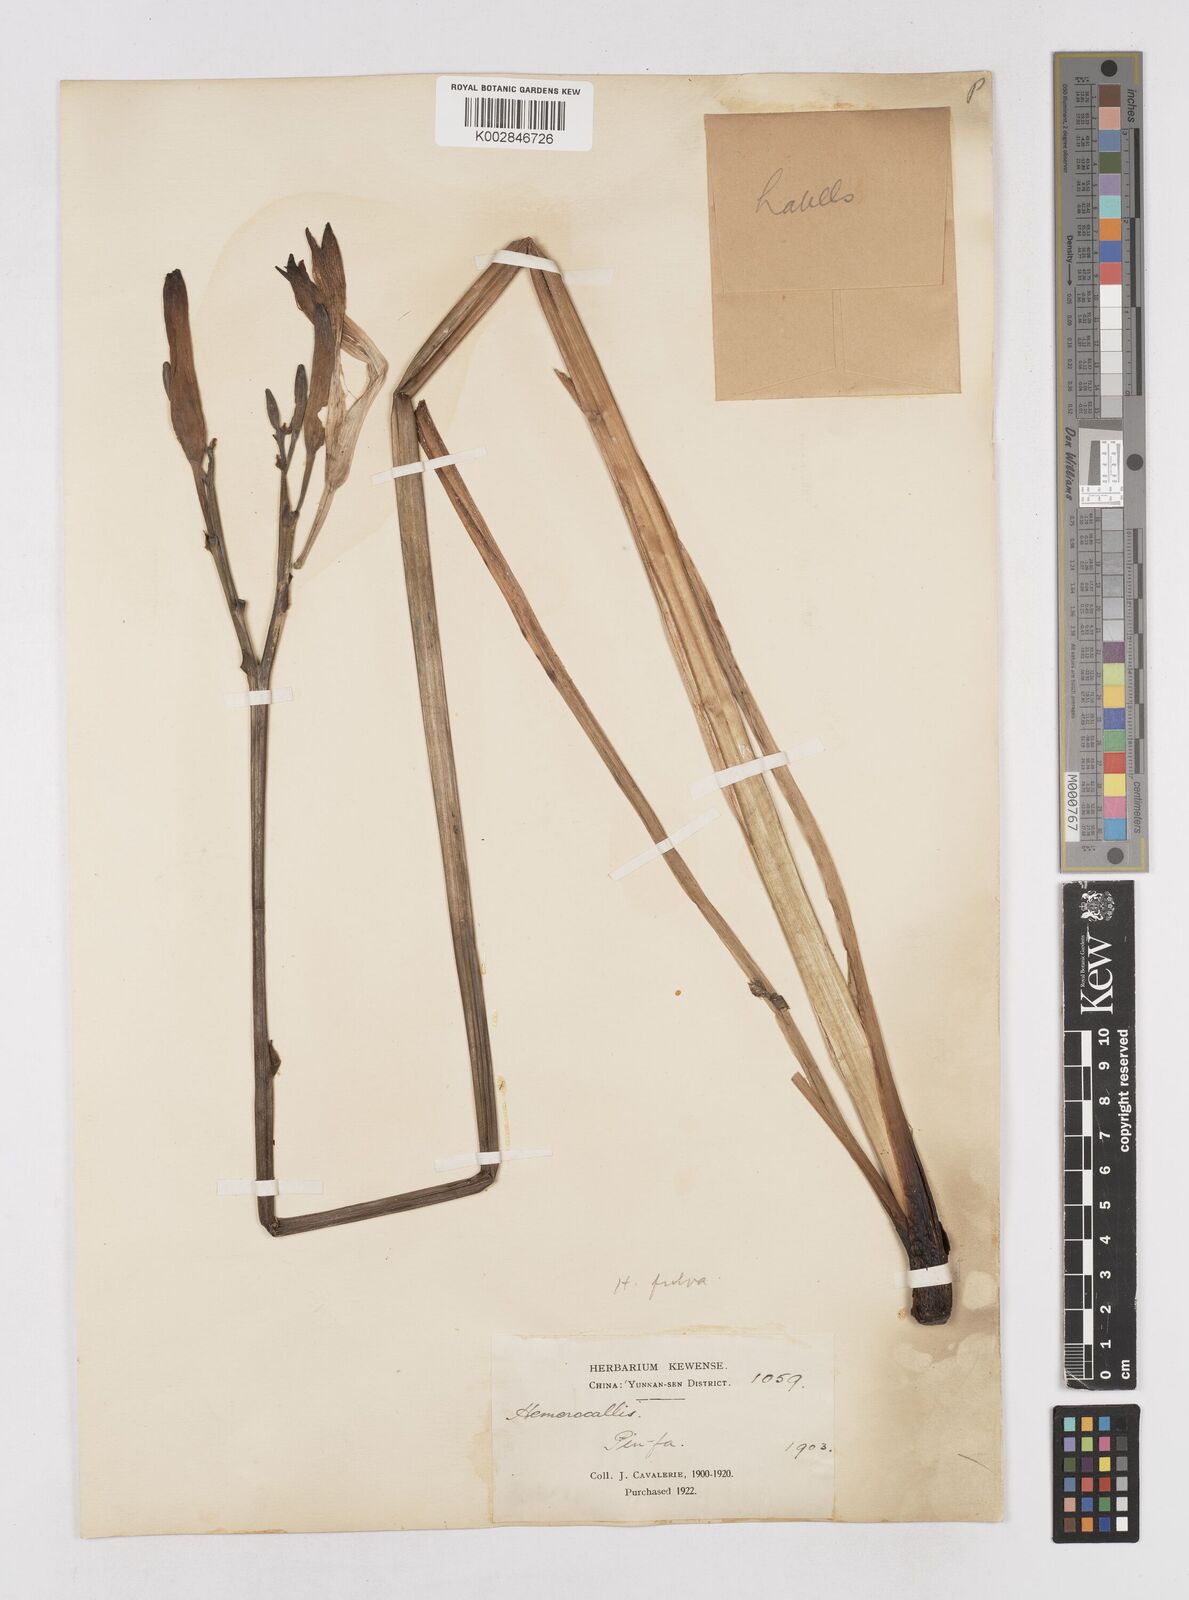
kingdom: Plantae
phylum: Tracheophyta
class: Liliopsida
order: Asparagales
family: Asphodelaceae
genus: Hemerocallis
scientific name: Hemerocallis
